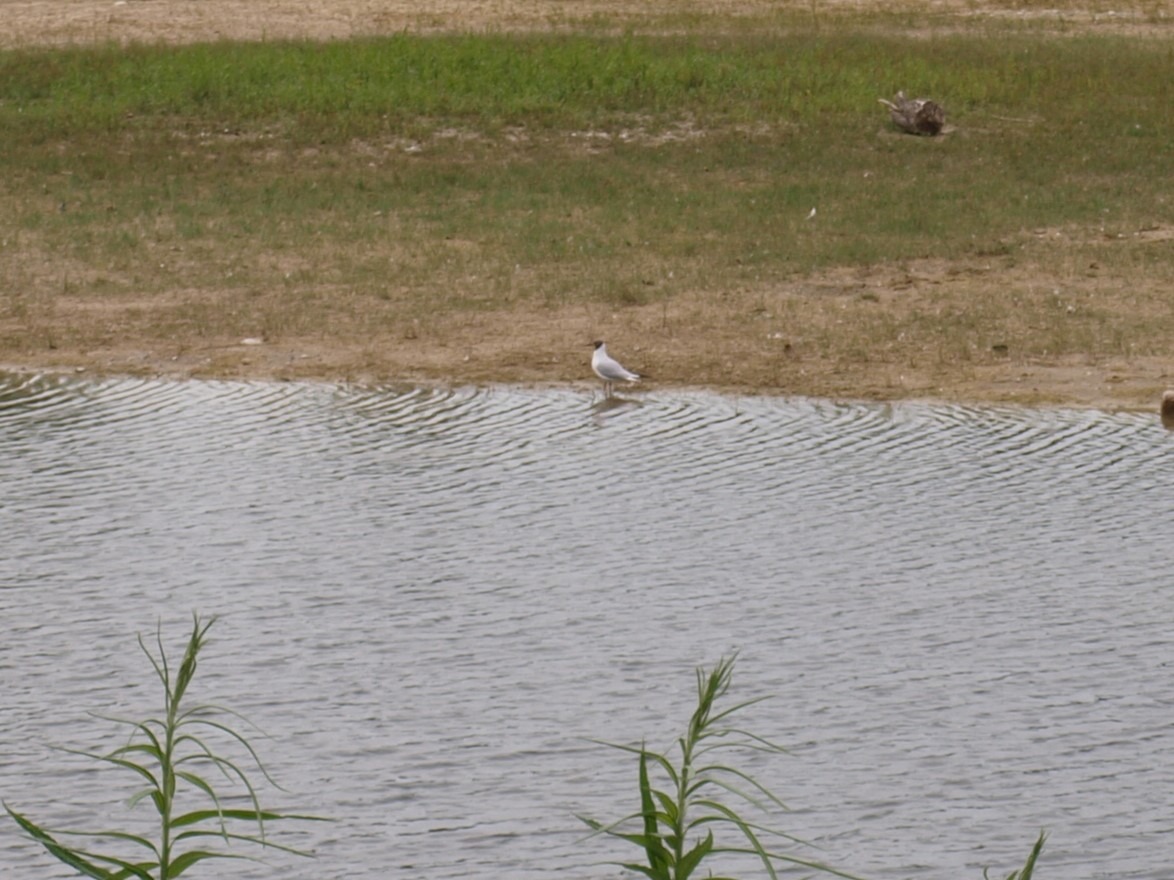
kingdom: Animalia
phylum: Chordata
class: Aves
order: Charadriiformes
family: Laridae
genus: Chroicocephalus
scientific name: Chroicocephalus ridibundus
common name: Hættemåge
